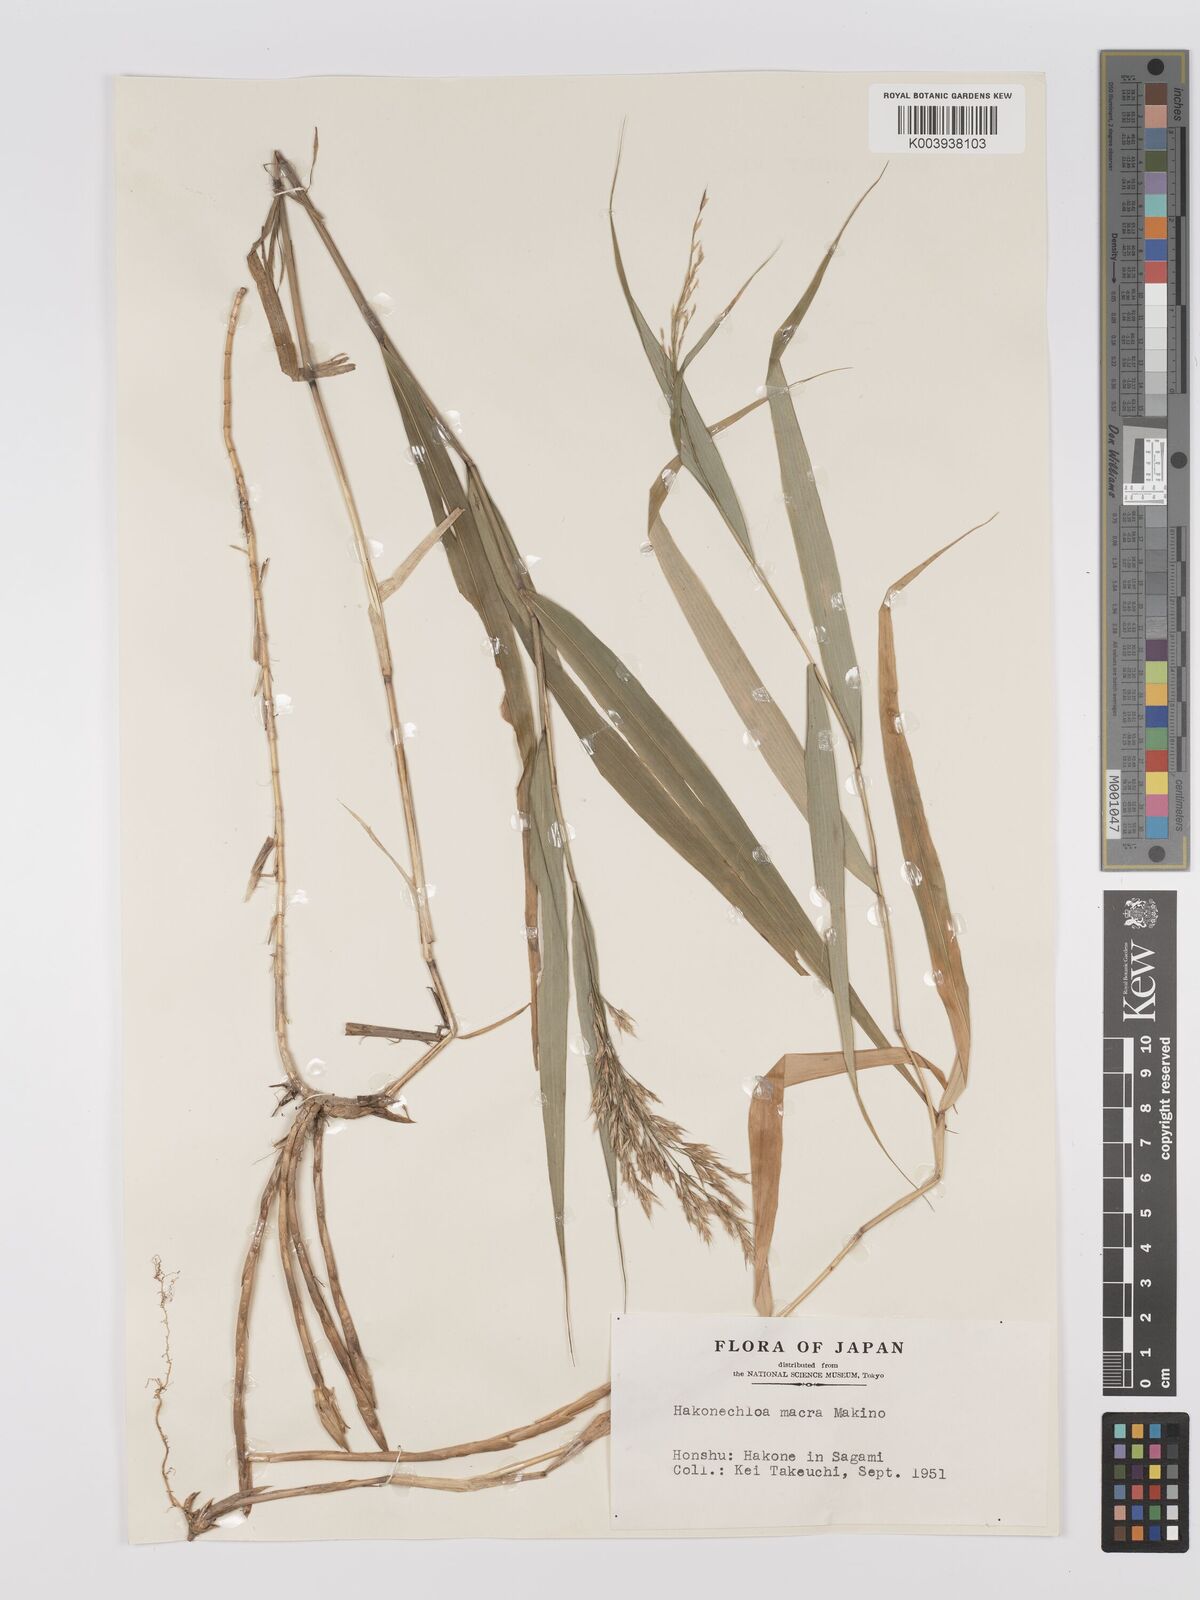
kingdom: Plantae
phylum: Tracheophyta
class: Liliopsida
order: Poales
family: Poaceae
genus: Hakonechloa
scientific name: Hakonechloa macra
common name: Hakone grass
